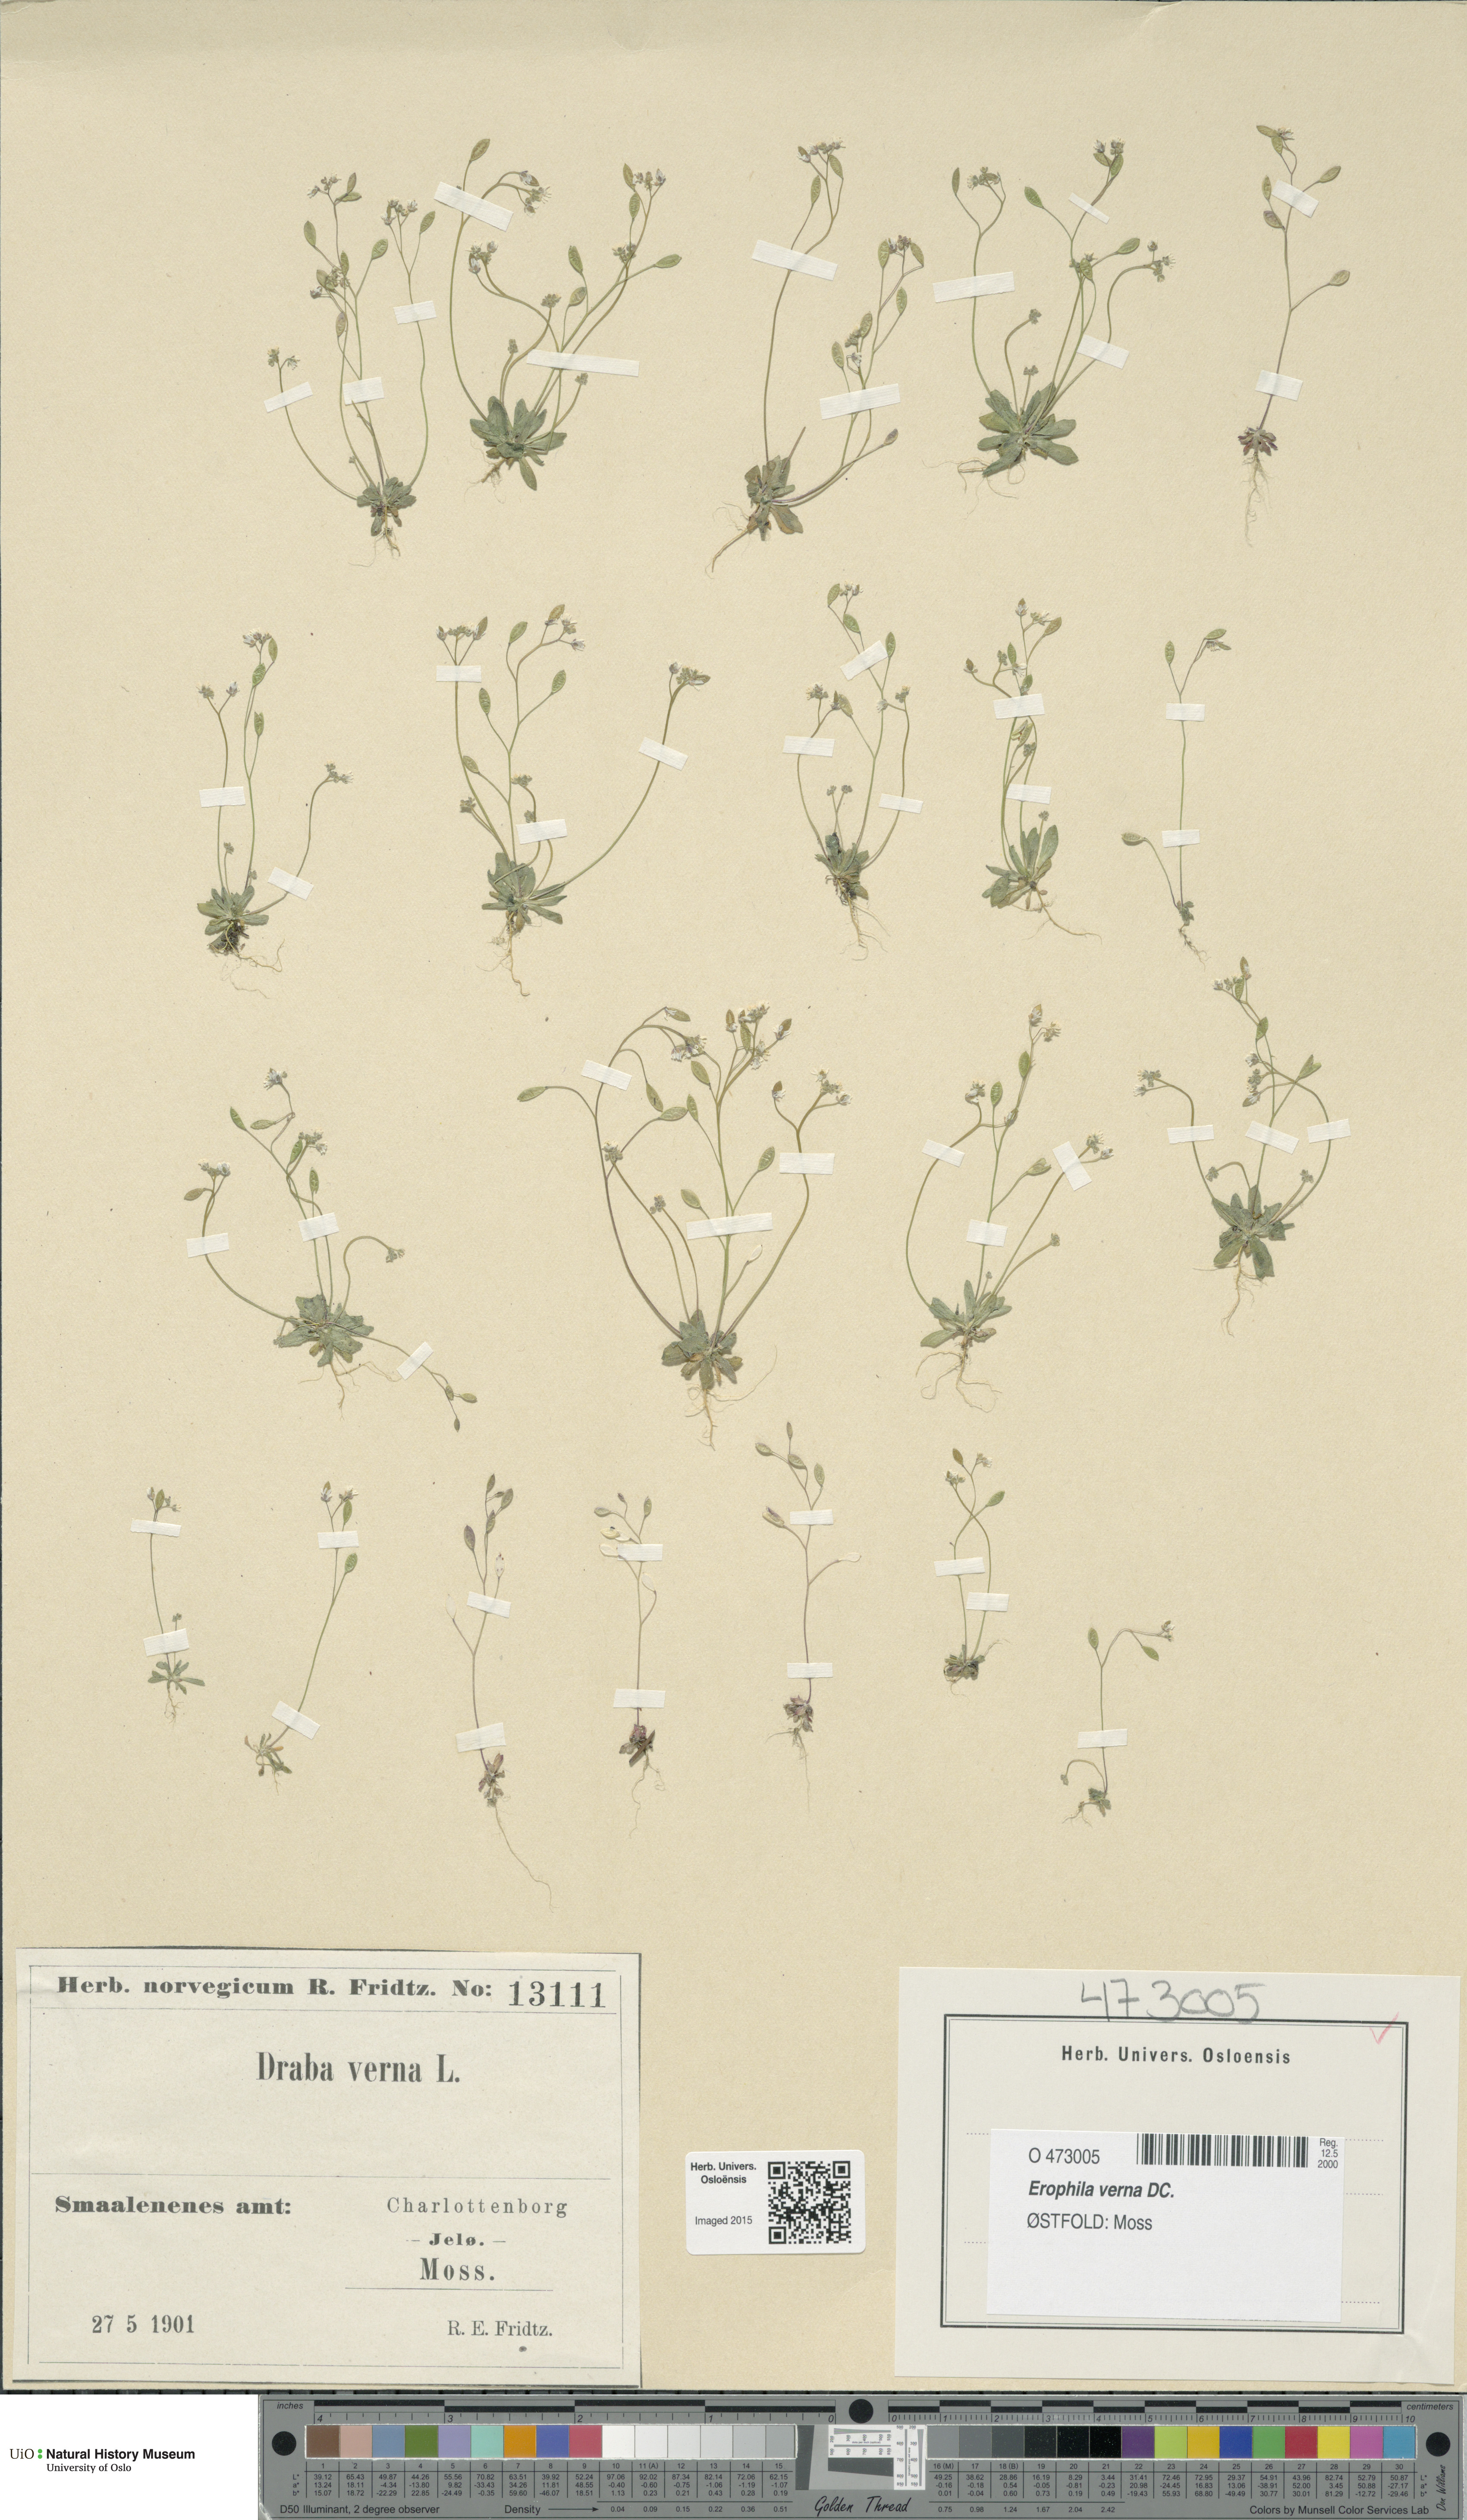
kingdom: Plantae
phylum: Tracheophyta
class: Magnoliopsida
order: Brassicales
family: Brassicaceae
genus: Draba
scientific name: Draba verna
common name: Spring draba
